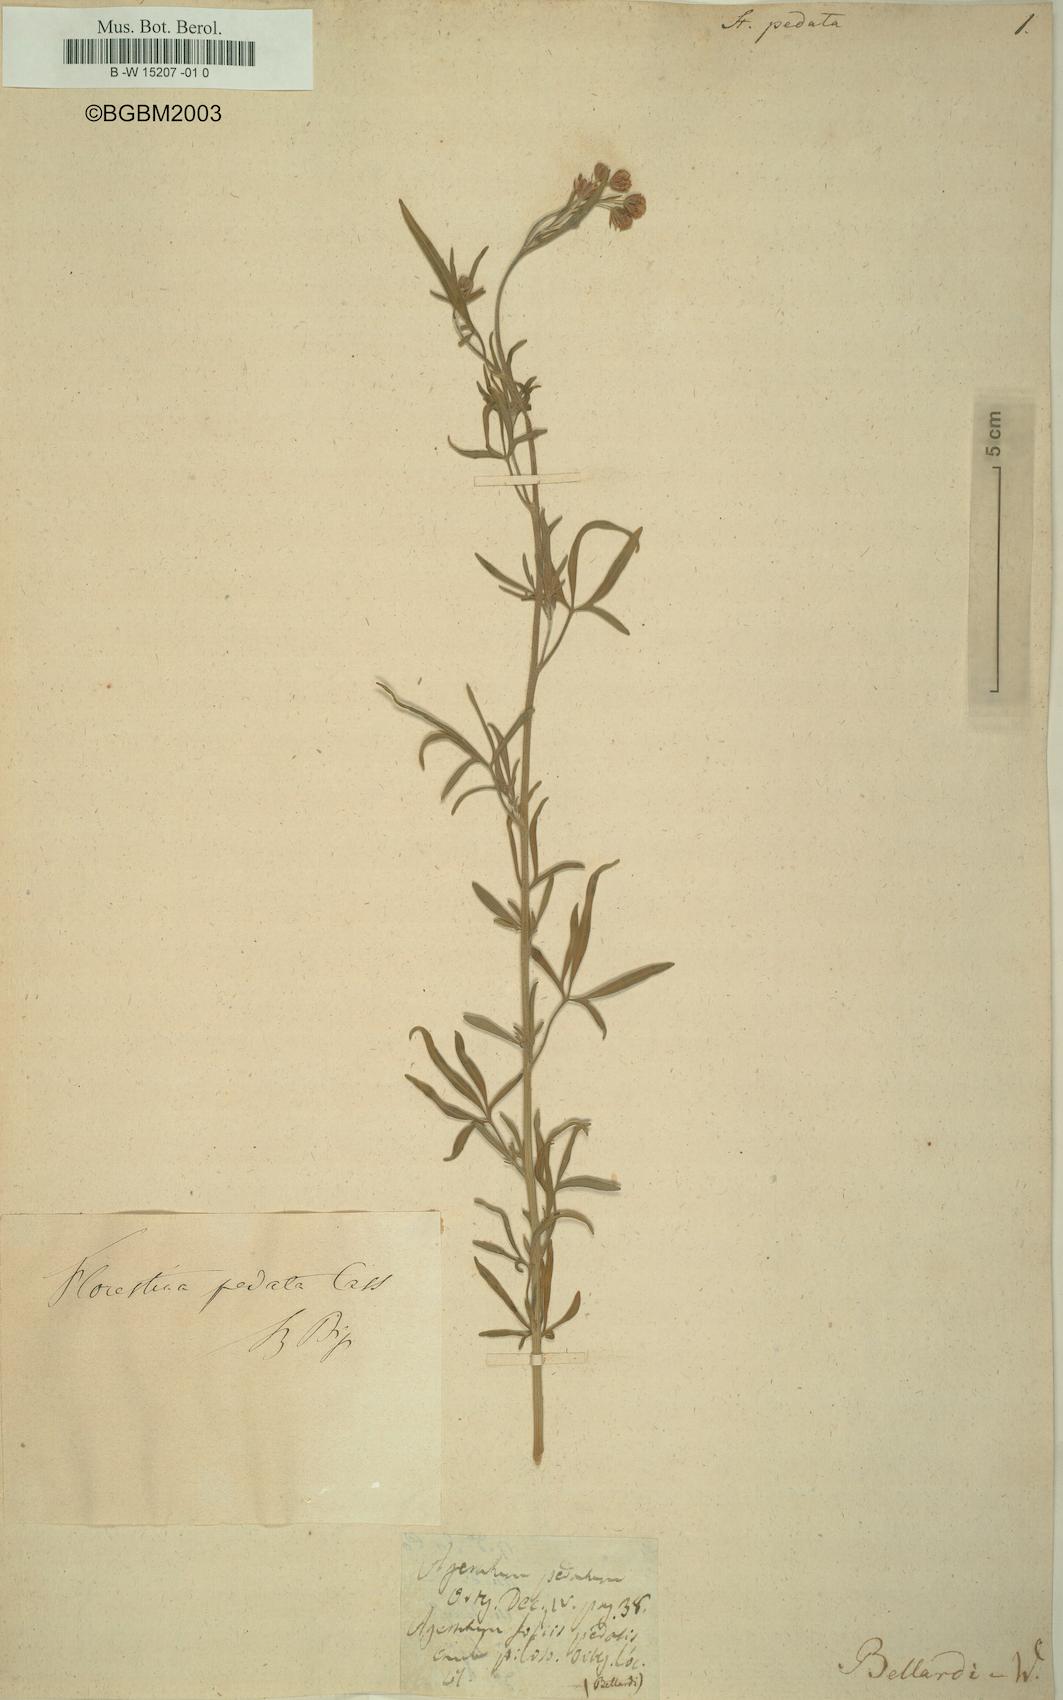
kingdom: Plantae
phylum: Tracheophyta
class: Magnoliopsida
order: Asterales
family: Asteraceae
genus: Florestina
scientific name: Florestina pedata
